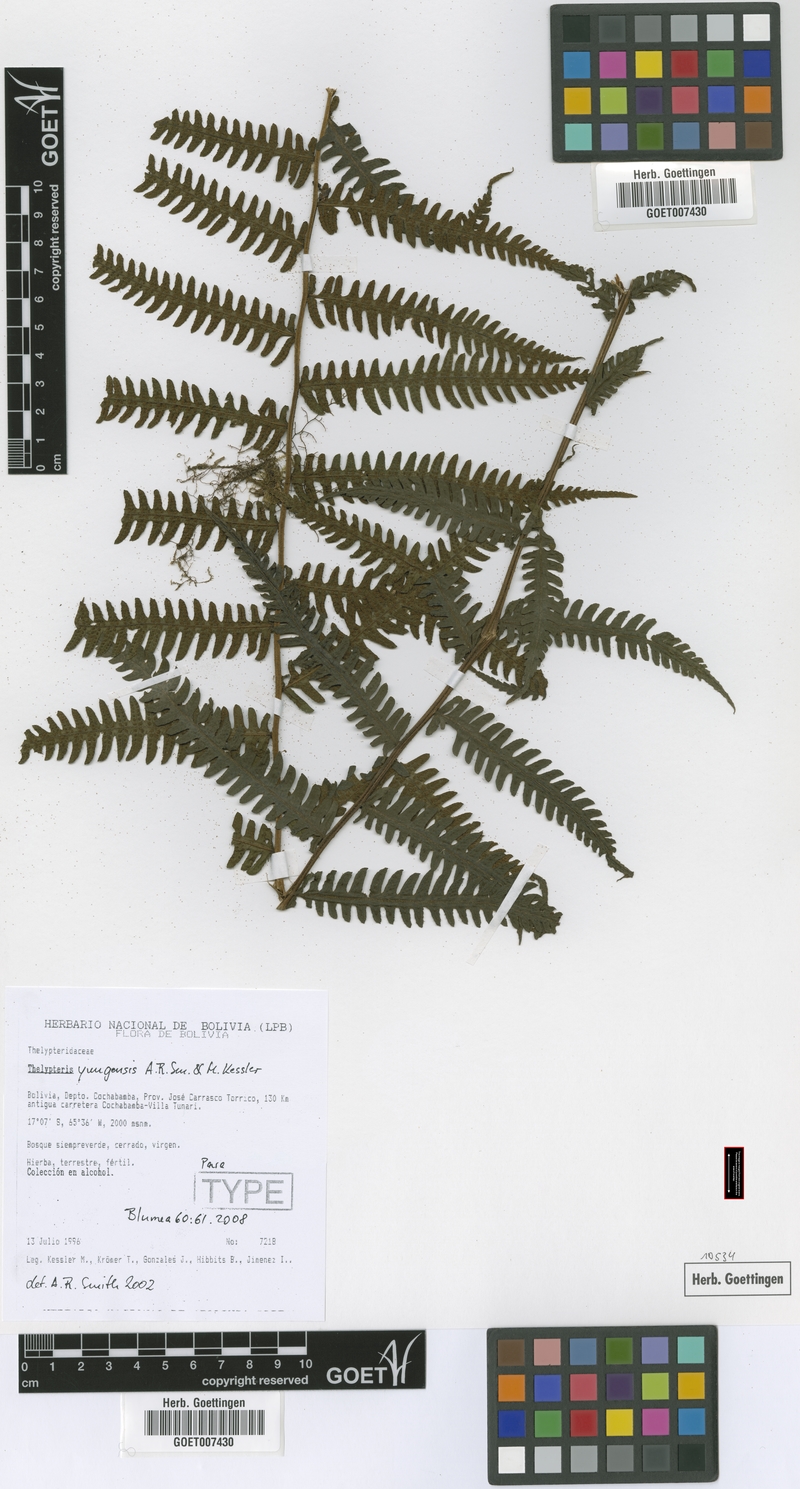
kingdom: Plantae
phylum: Tracheophyta
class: Polypodiopsida
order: Polypodiales
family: Thelypteridaceae
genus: Amauropelta
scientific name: Amauropelta yungensis
